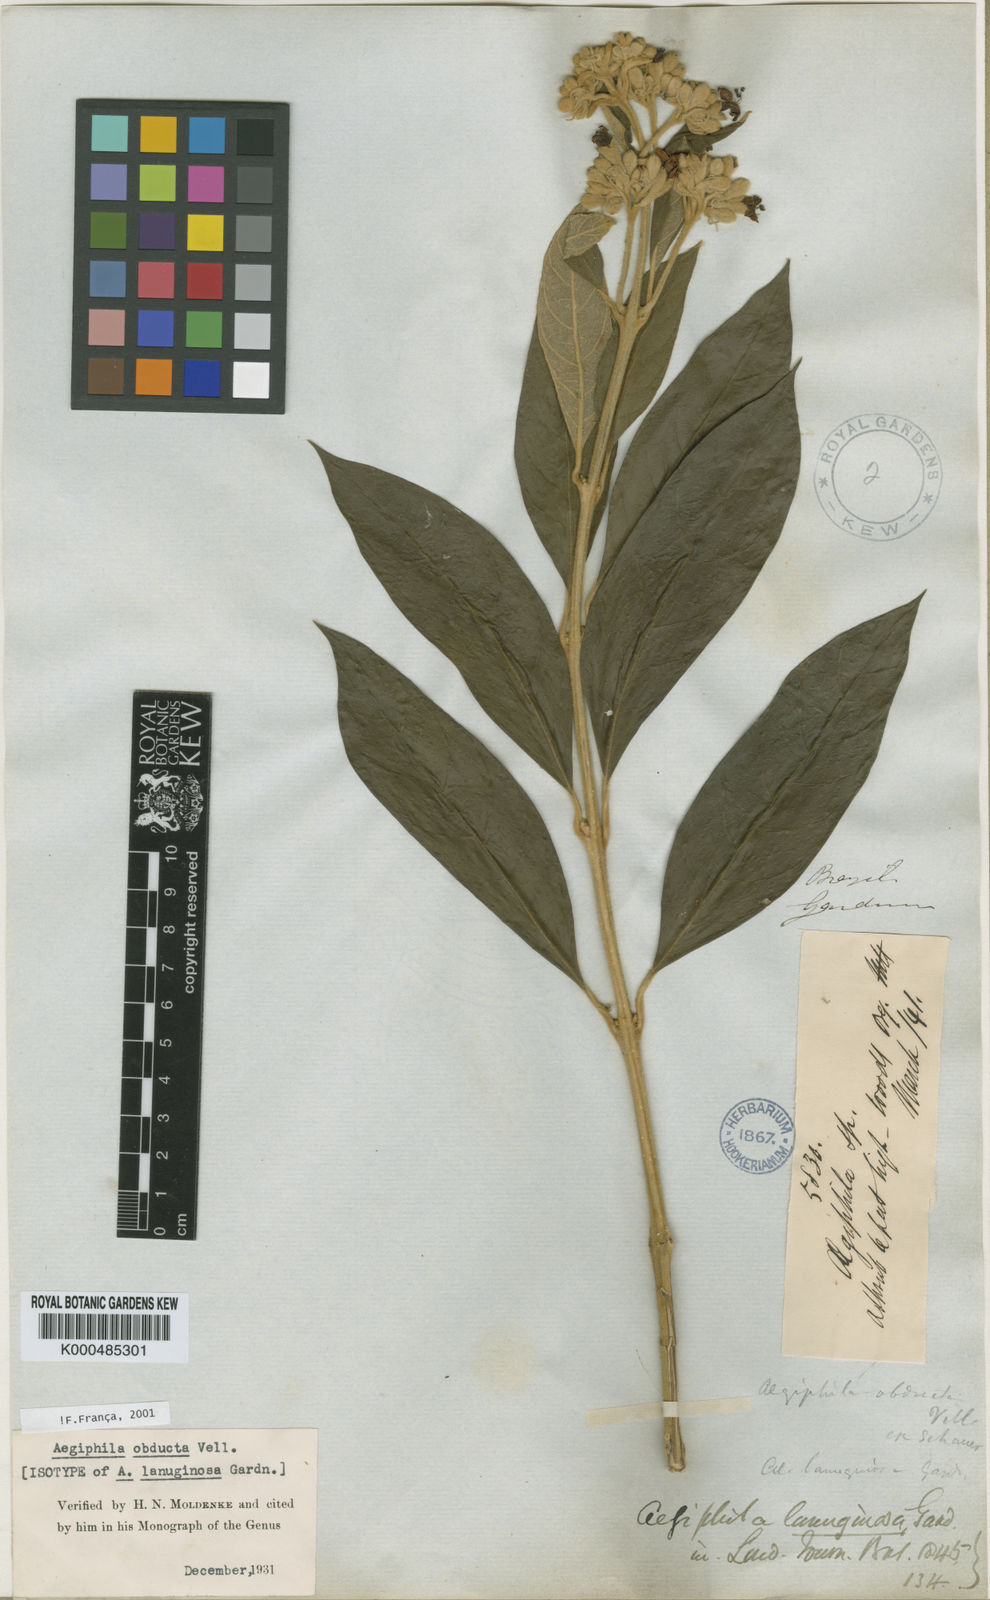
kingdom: Plantae
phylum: Tracheophyta
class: Magnoliopsida
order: Lamiales
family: Lamiaceae
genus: Aegiphila
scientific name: Aegiphila obducta
